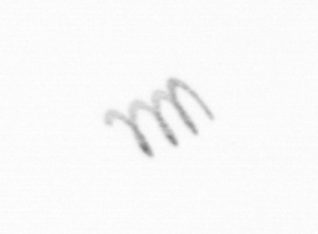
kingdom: Chromista
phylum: Ochrophyta
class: Bacillariophyceae
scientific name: Bacillariophyceae
